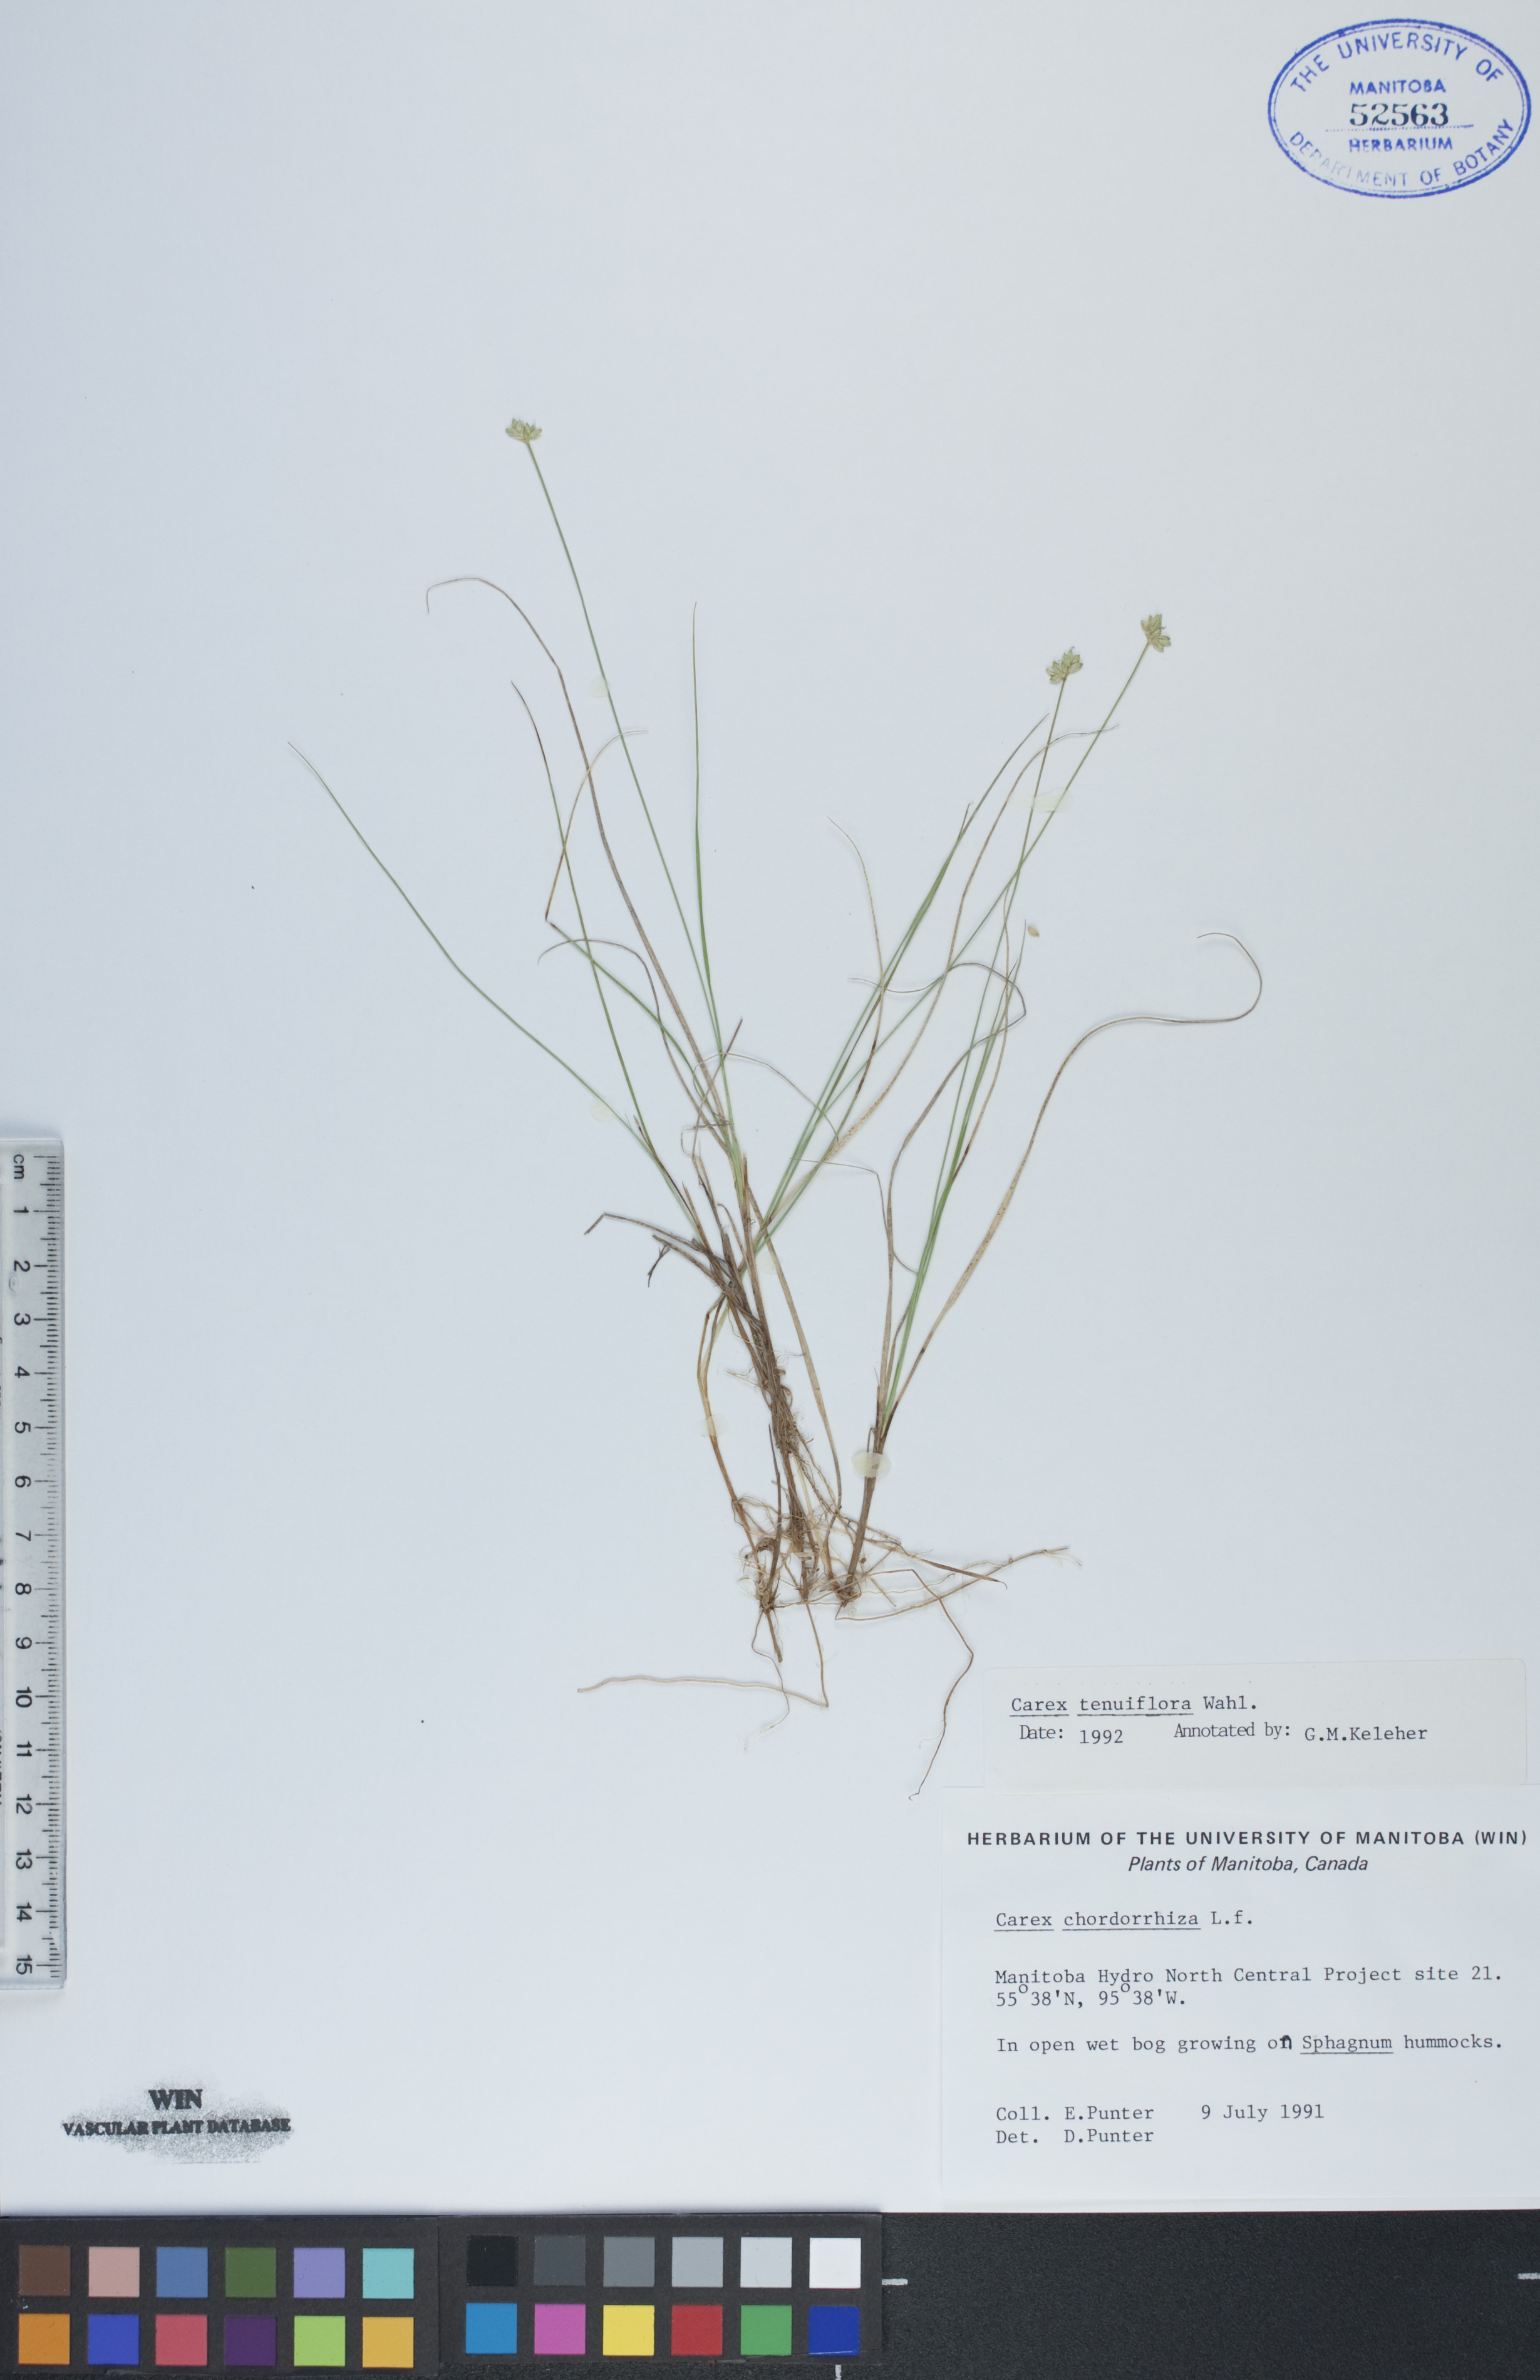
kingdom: Plantae
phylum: Tracheophyta
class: Liliopsida
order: Poales
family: Cyperaceae
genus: Carex
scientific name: Carex tenuiflora
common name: Sparse-flowered sedge
